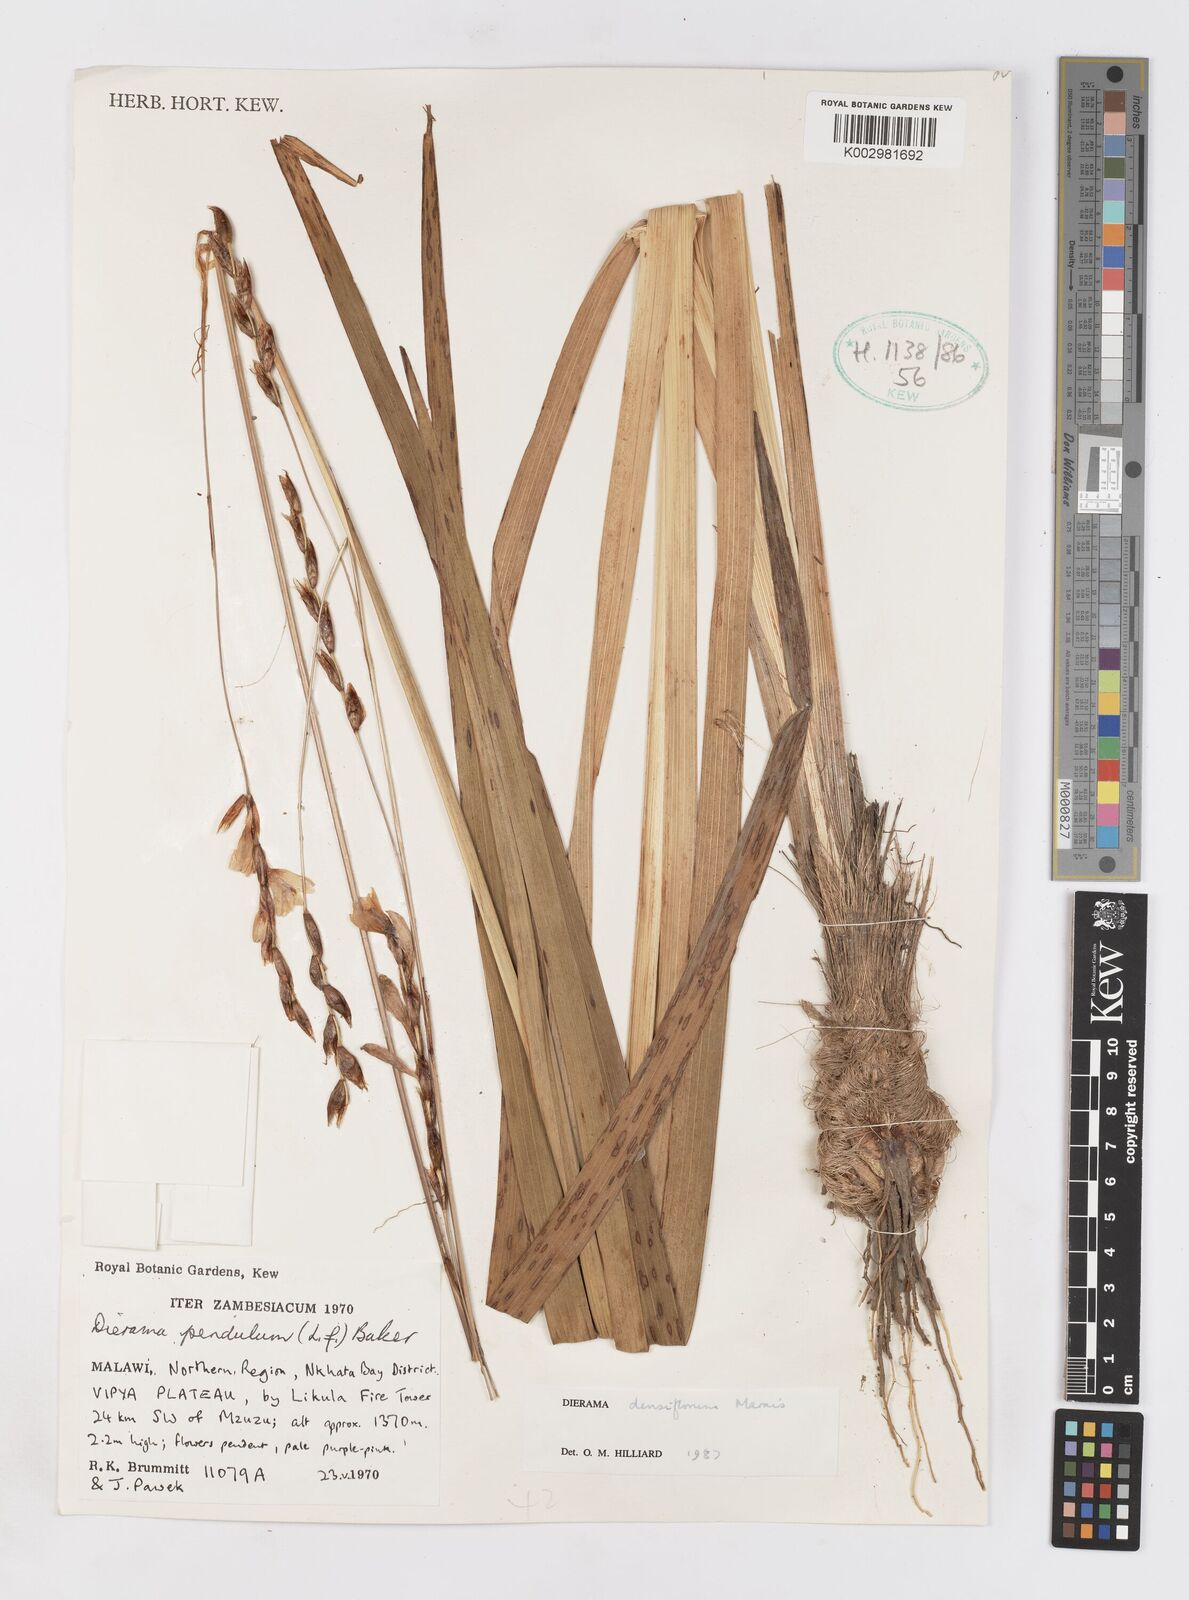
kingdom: Plantae
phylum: Tracheophyta
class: Liliopsida
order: Asparagales
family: Iridaceae
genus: Dierama
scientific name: Dierama densiflorum
